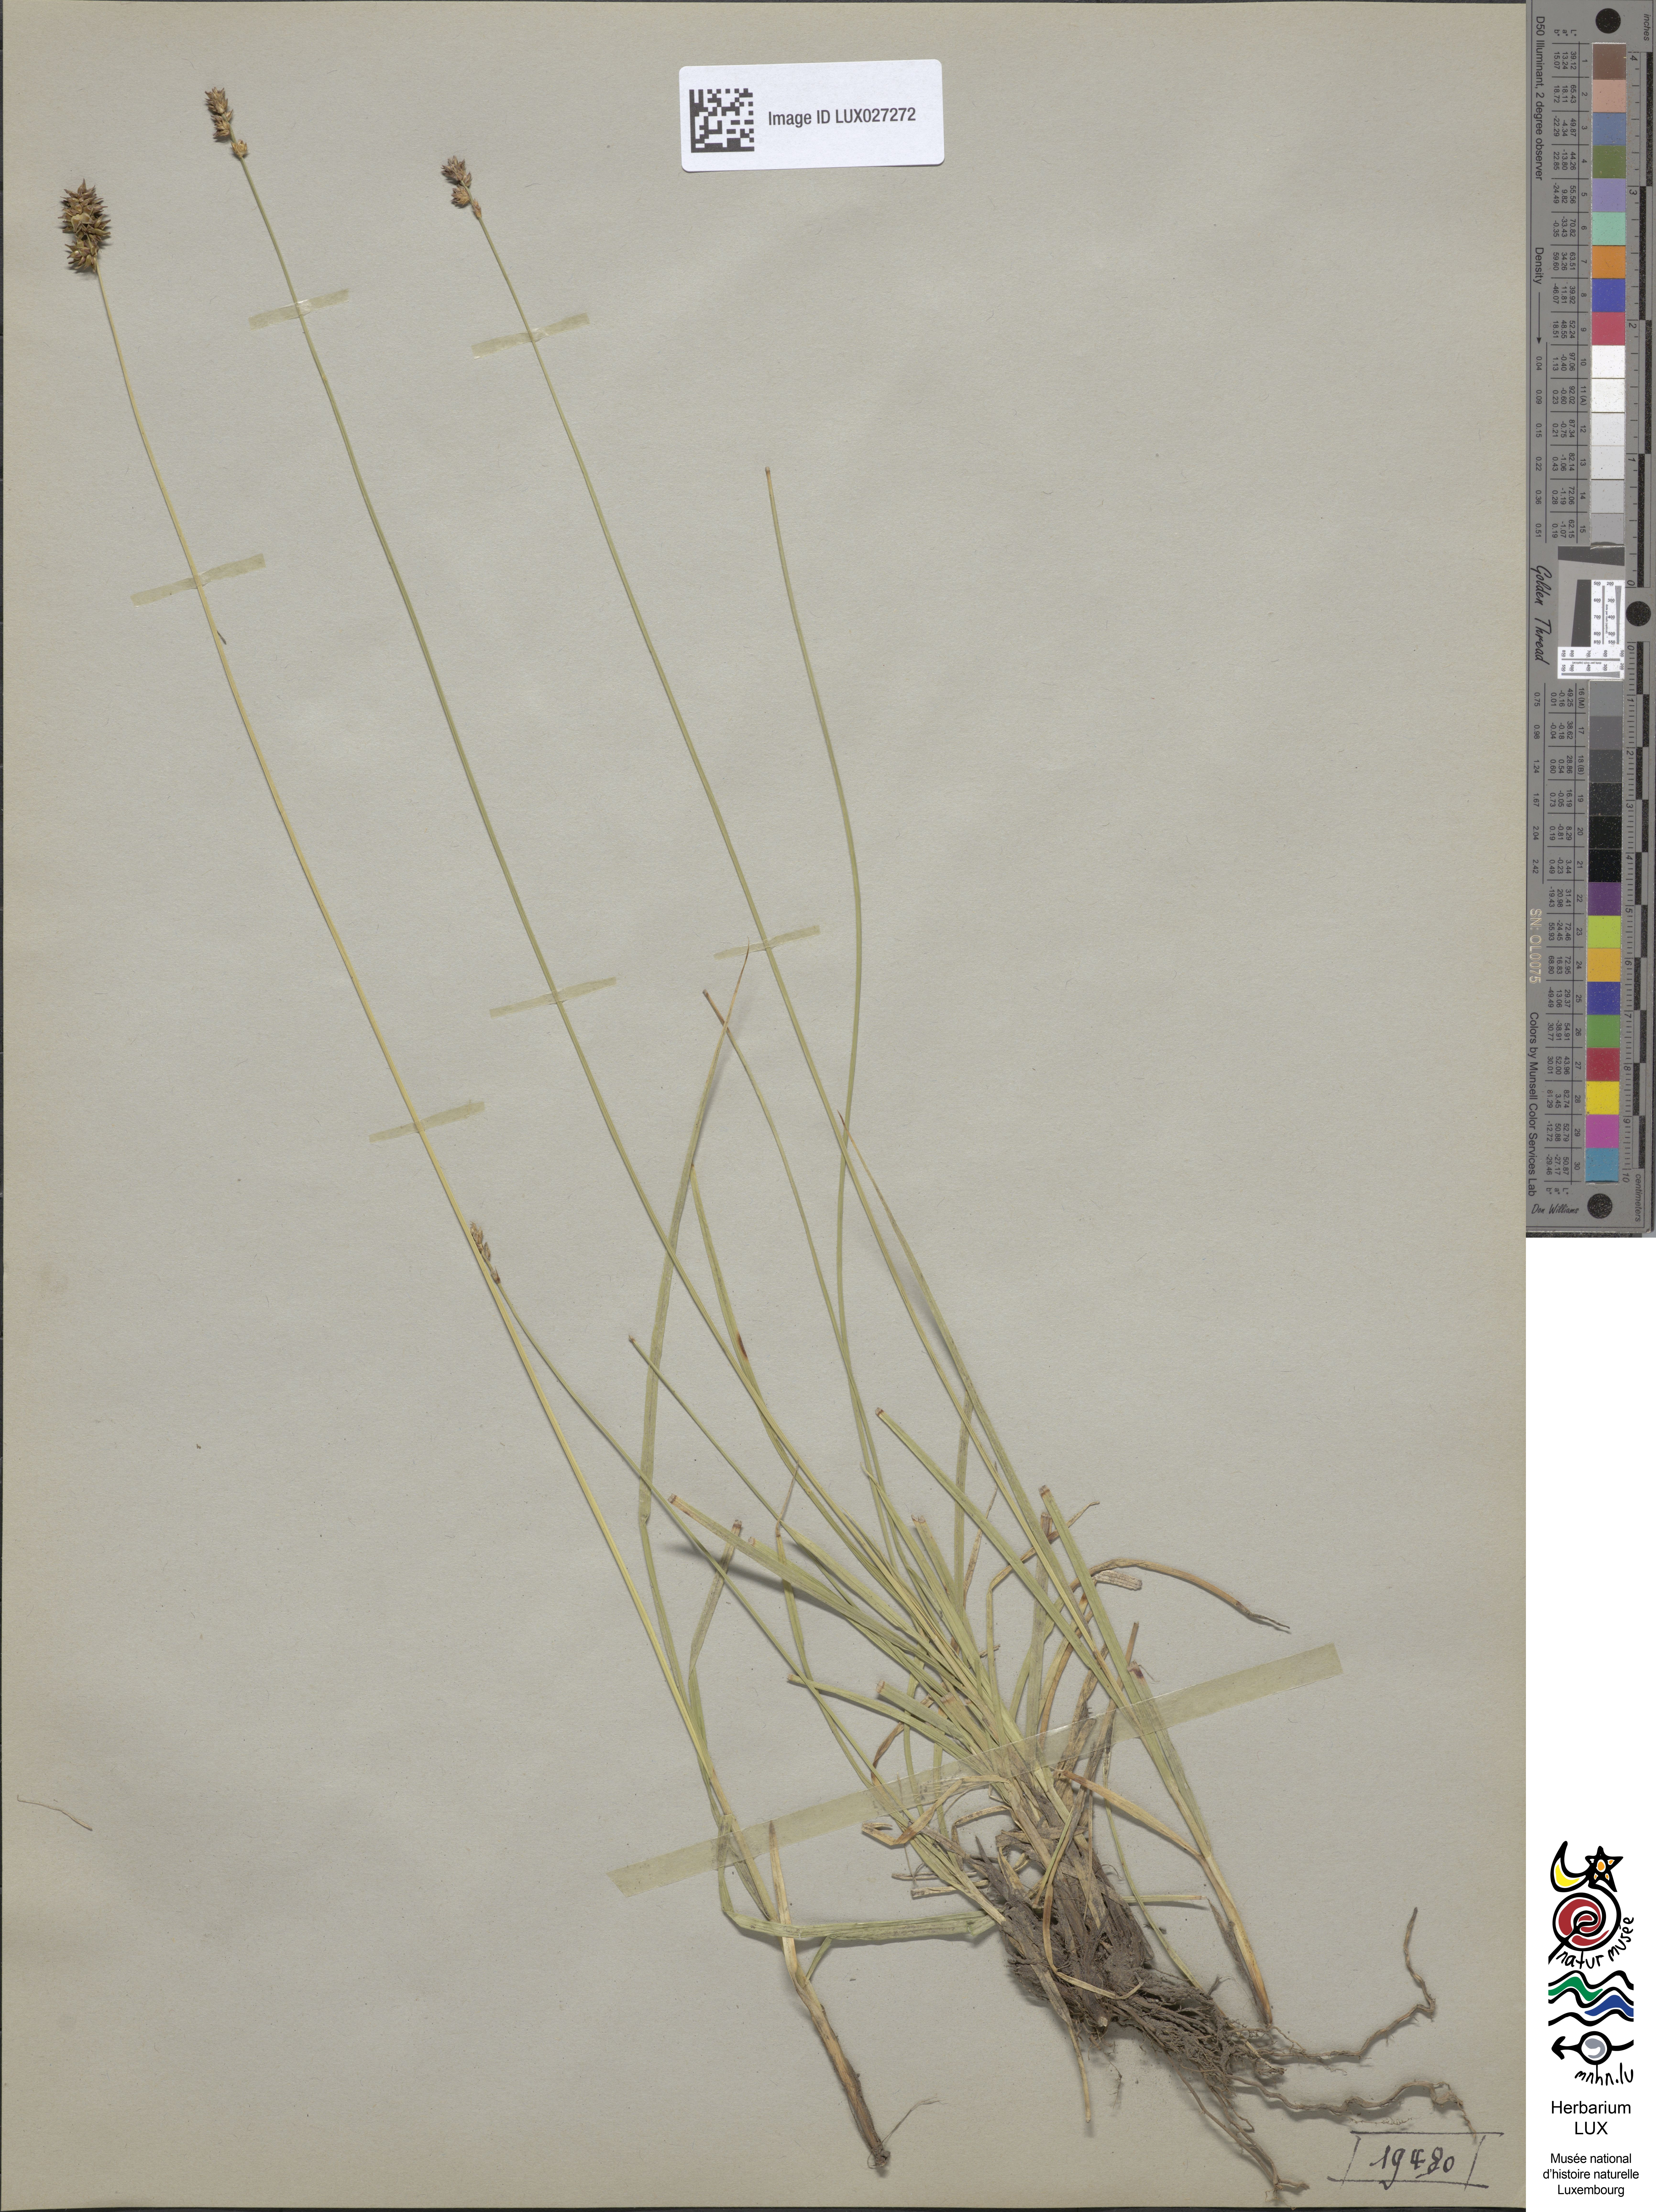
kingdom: Plantae
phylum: Tracheophyta
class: Liliopsida
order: Poales
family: Cyperaceae
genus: Carex
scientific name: Carex pairae
